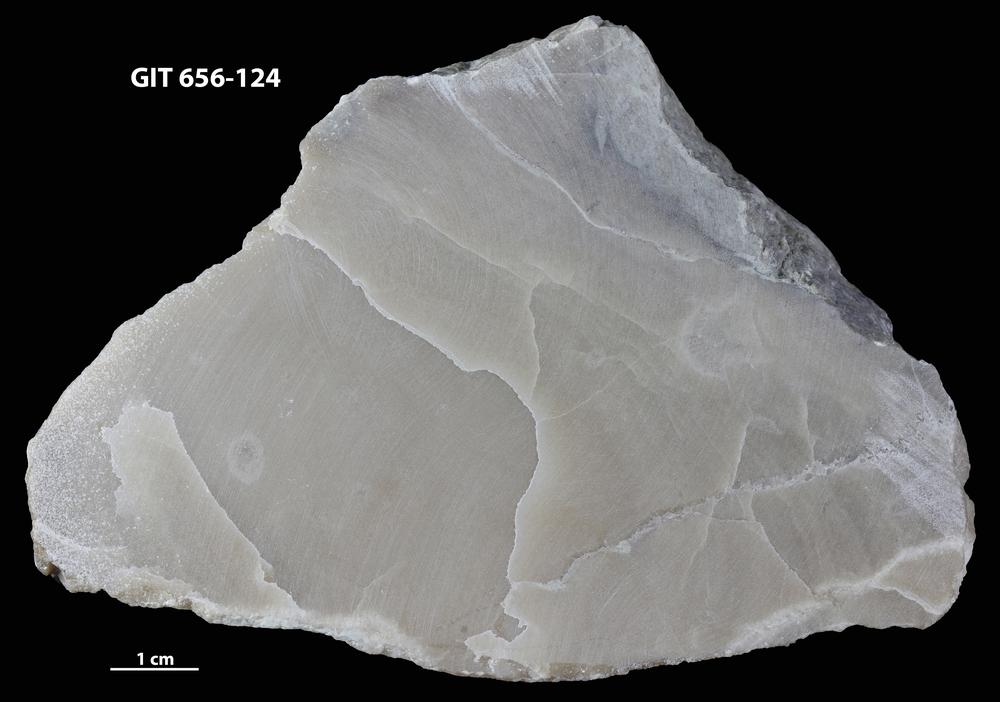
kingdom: Animalia
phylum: Porifera
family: Stromatoporidae
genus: Stromatopora
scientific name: Stromatopora
